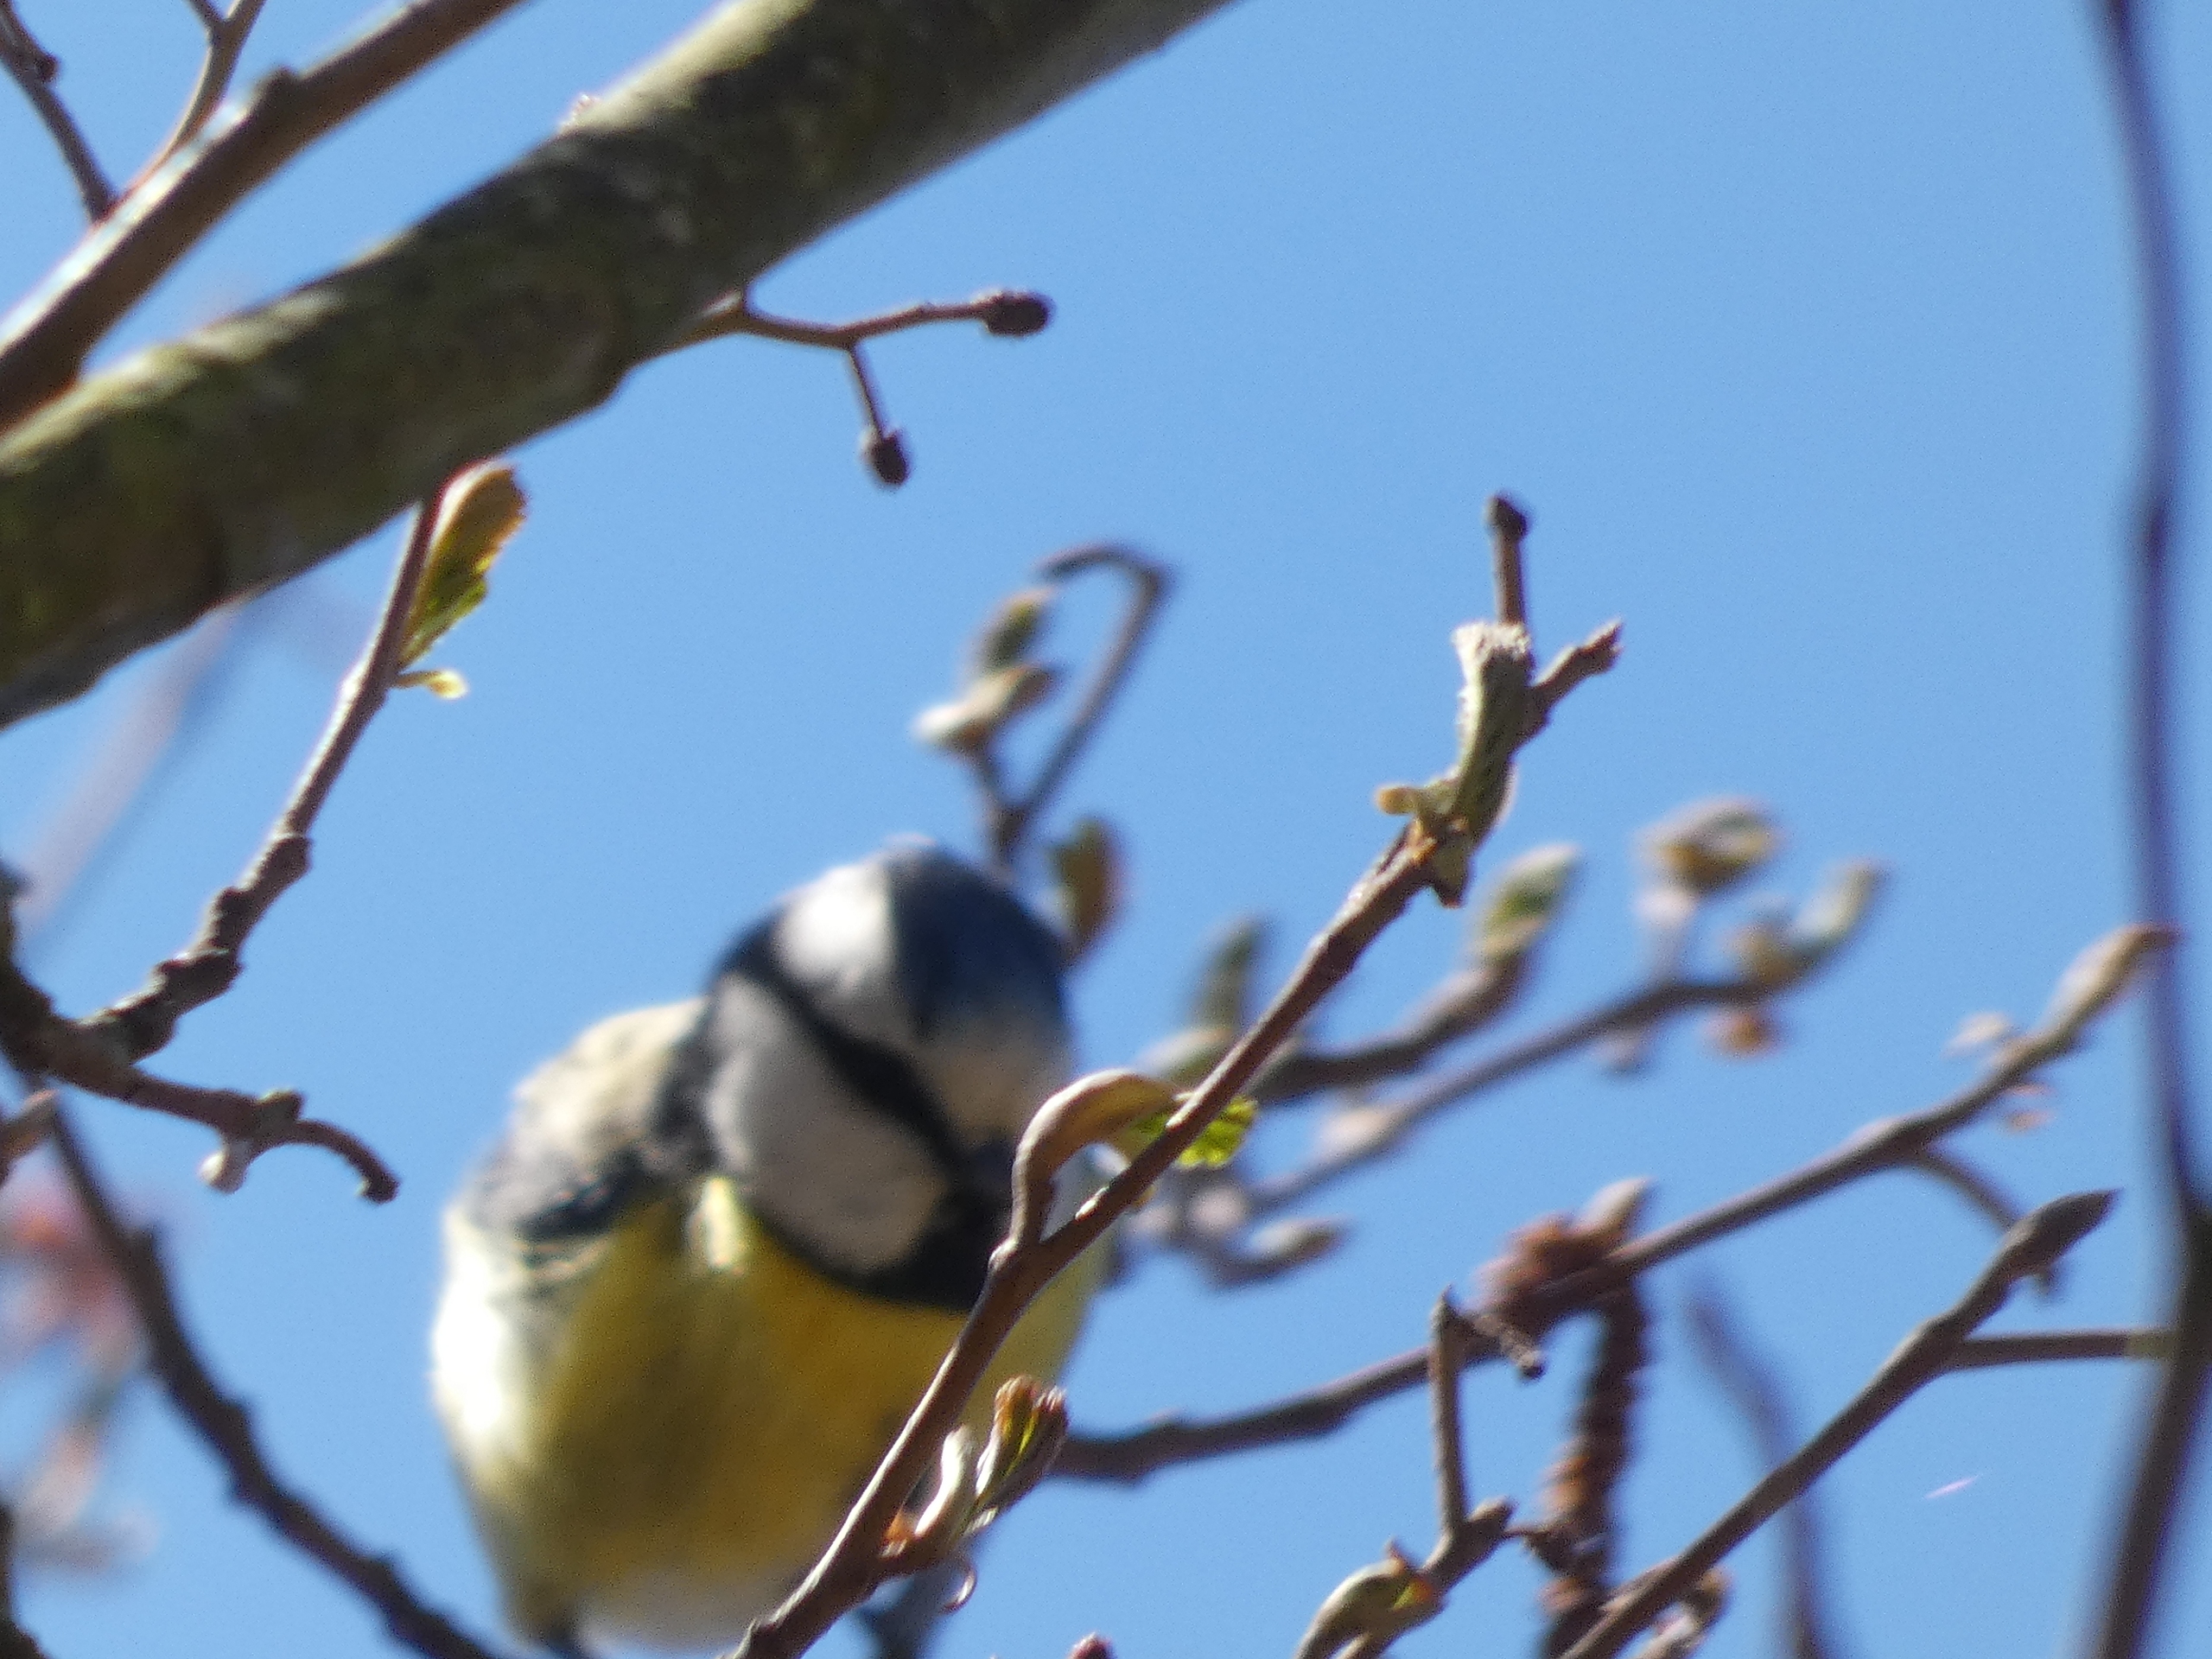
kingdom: Animalia
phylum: Chordata
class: Aves
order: Passeriformes
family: Paridae
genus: Cyanistes
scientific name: Cyanistes caeruleus
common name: Blåmejse
